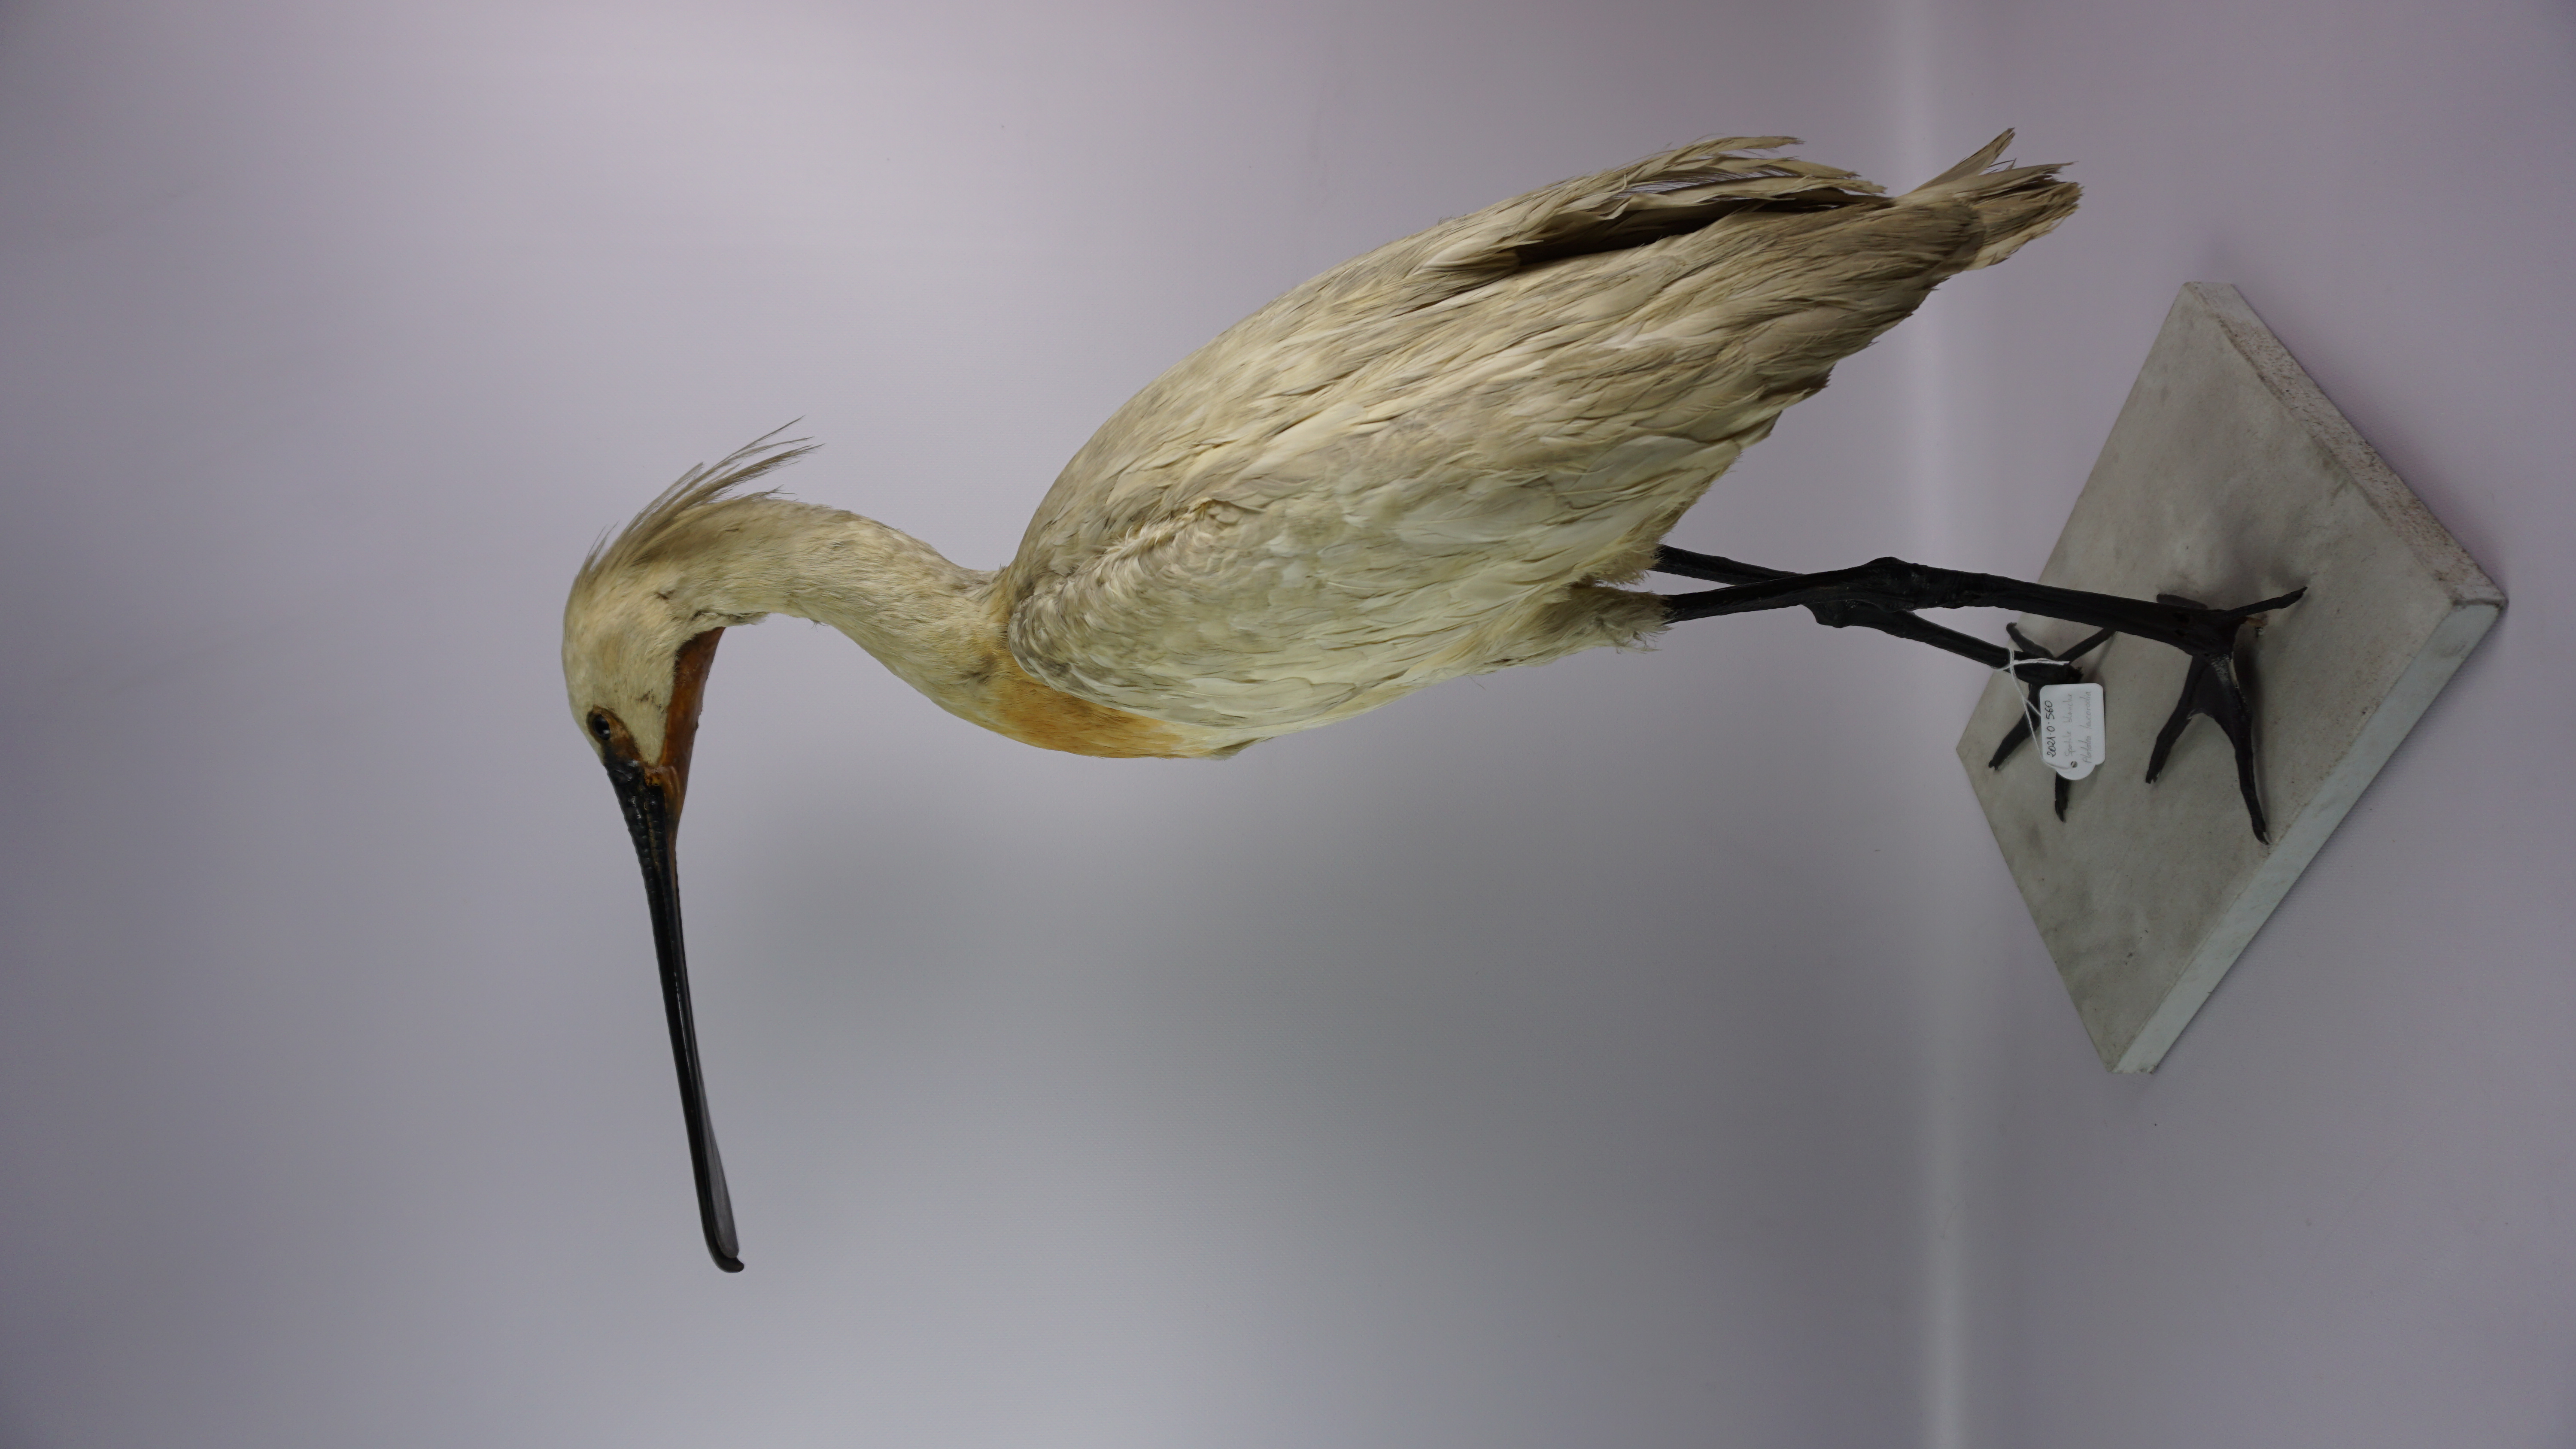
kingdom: Animalia
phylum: Chordata
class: Aves
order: Pelecaniformes
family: Threskiornithidae
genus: Platalea
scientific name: Platalea leucorodia
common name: Eurasian spoonbill
